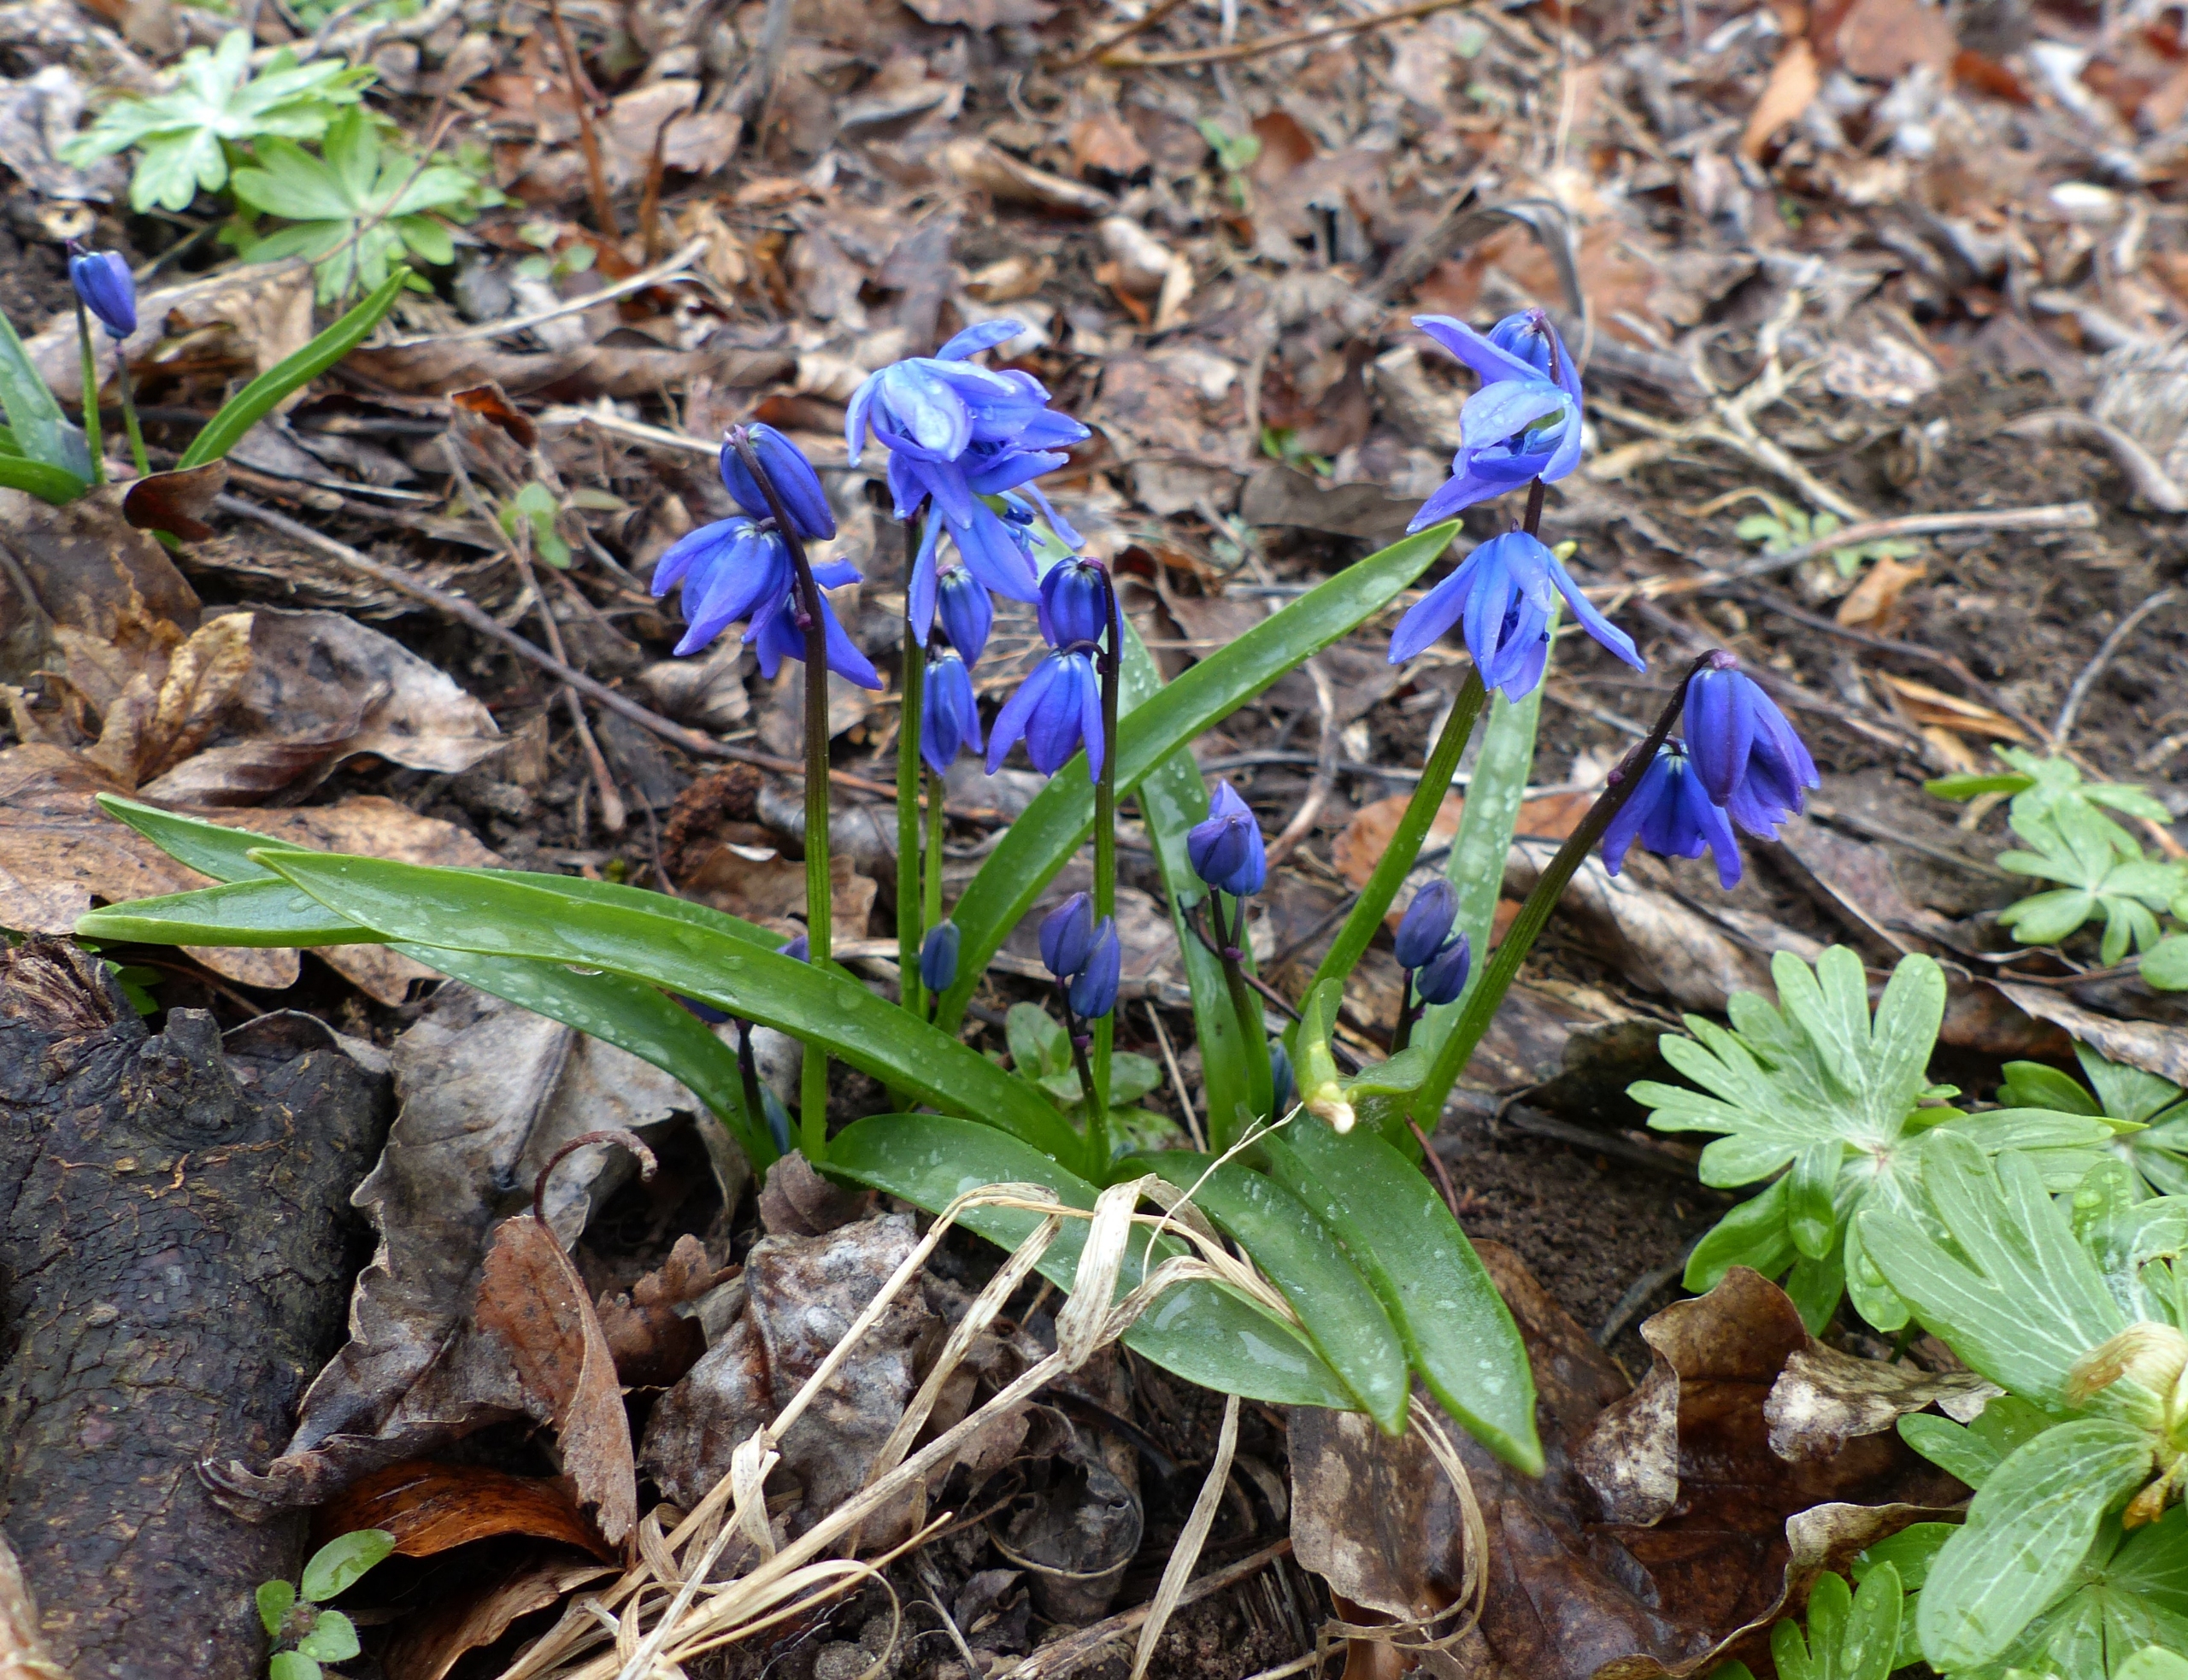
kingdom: Plantae
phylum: Tracheophyta
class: Liliopsida
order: Asparagales
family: Asparagaceae
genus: Scilla
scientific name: Scilla siberica
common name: Russisk skilla
